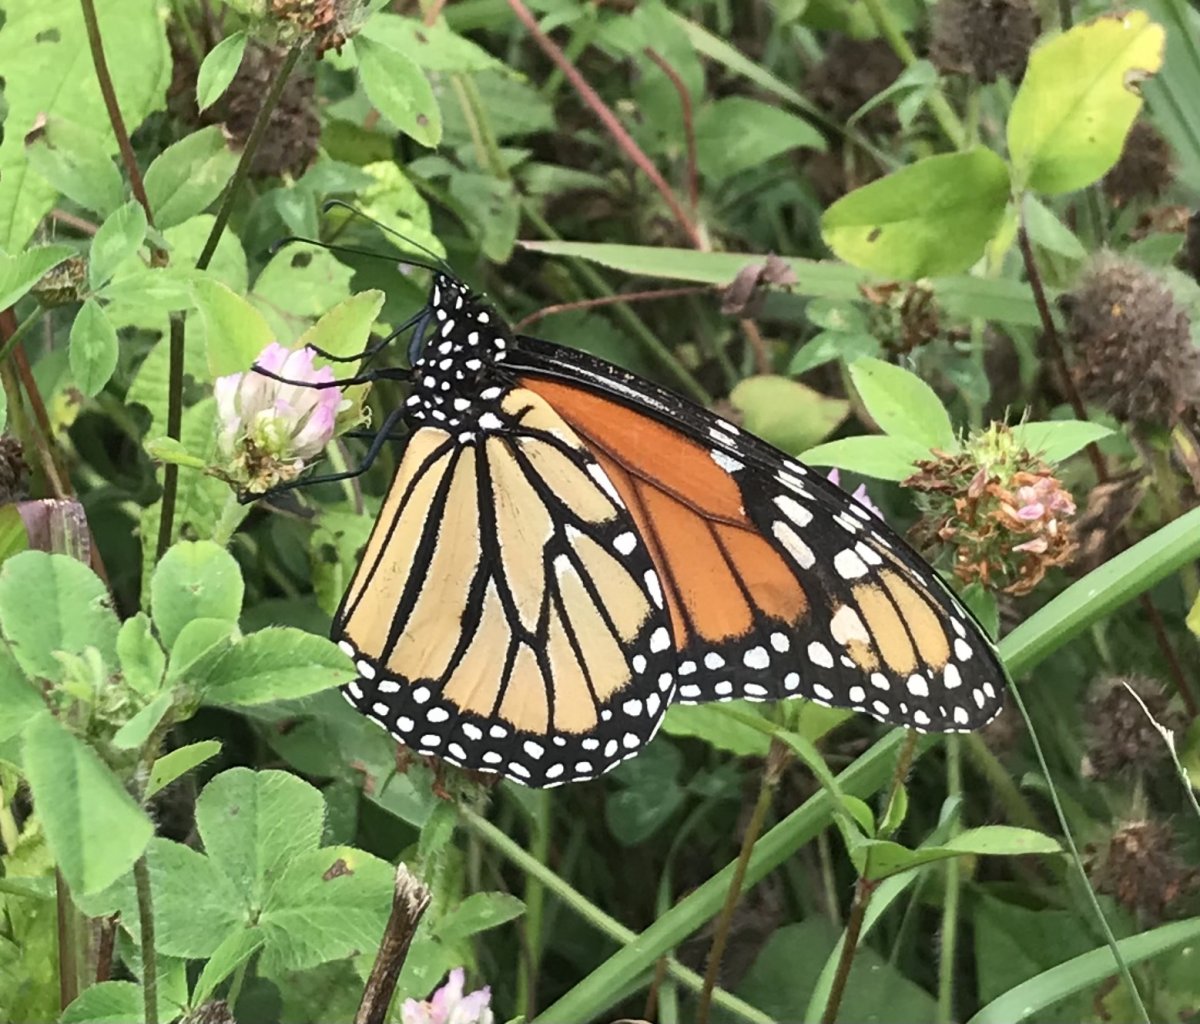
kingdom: Animalia
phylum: Arthropoda
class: Insecta
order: Lepidoptera
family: Nymphalidae
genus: Danaus
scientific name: Danaus plexippus
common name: Monarch
